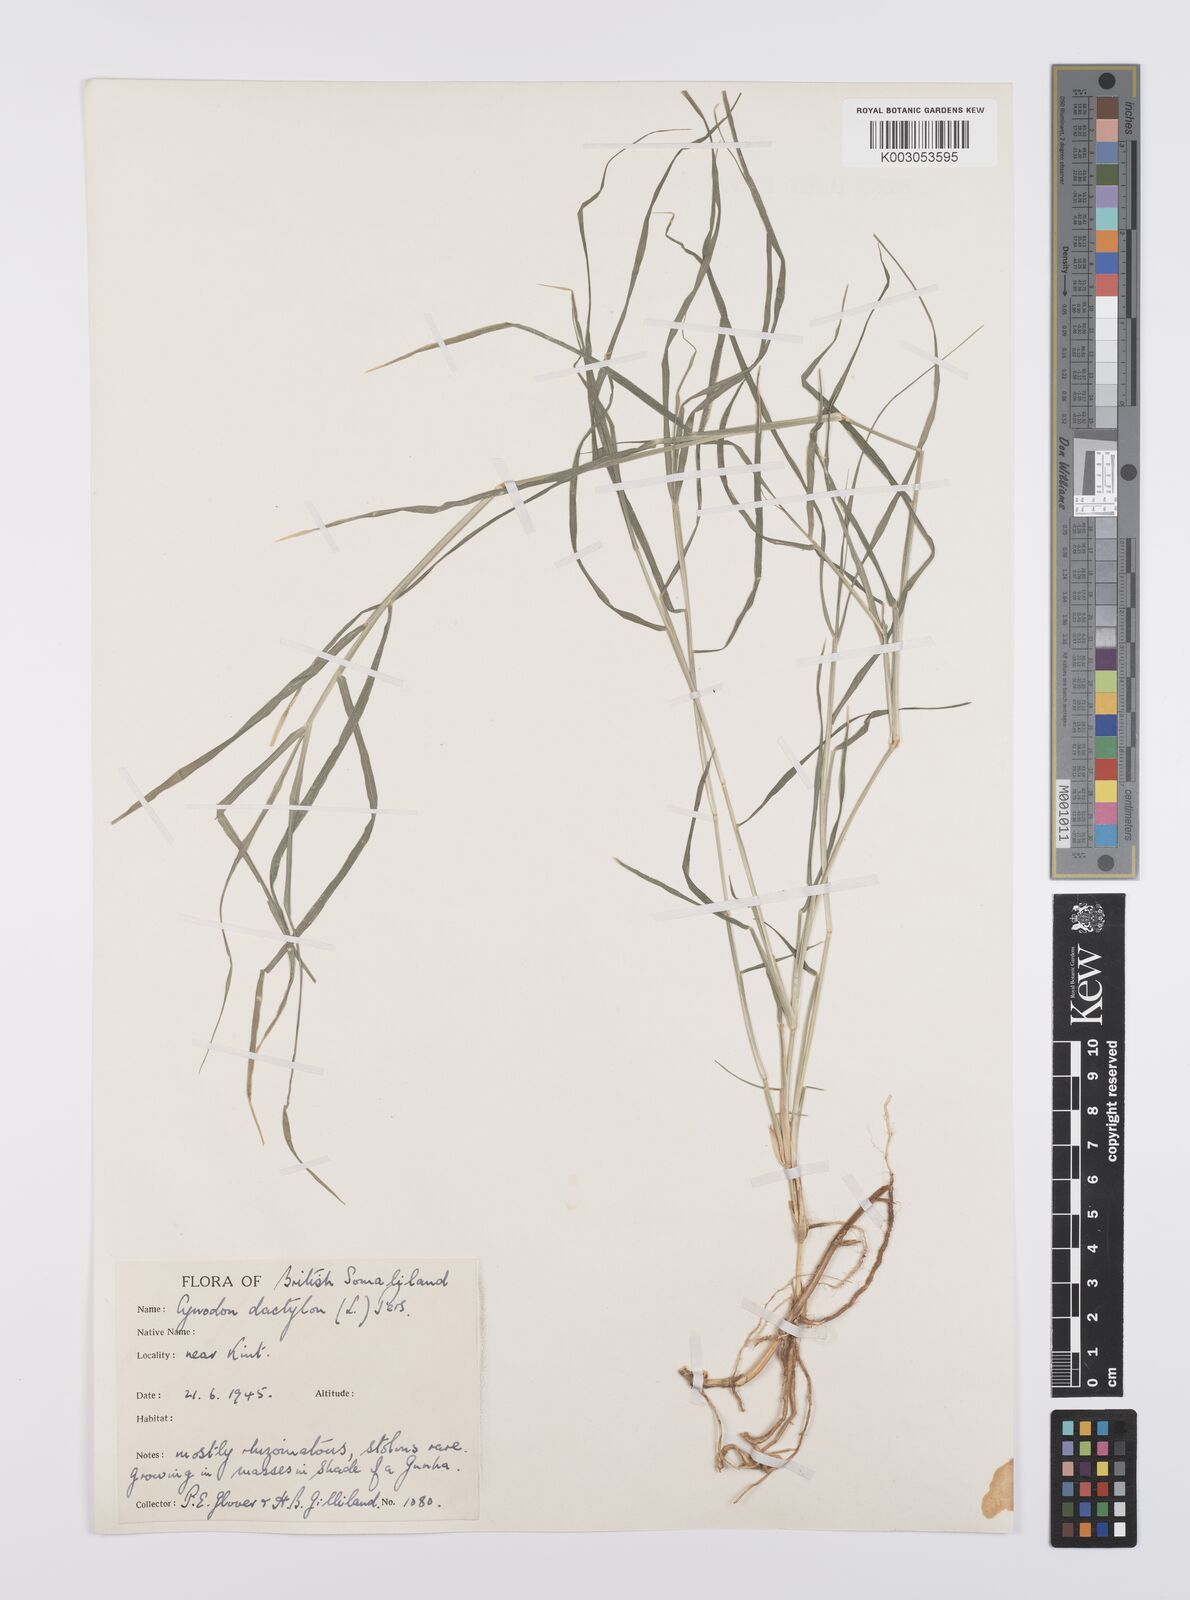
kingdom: Plantae
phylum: Tracheophyta
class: Liliopsida
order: Poales
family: Poaceae
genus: Cynodon
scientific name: Cynodon dactylon
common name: Bermuda grass
